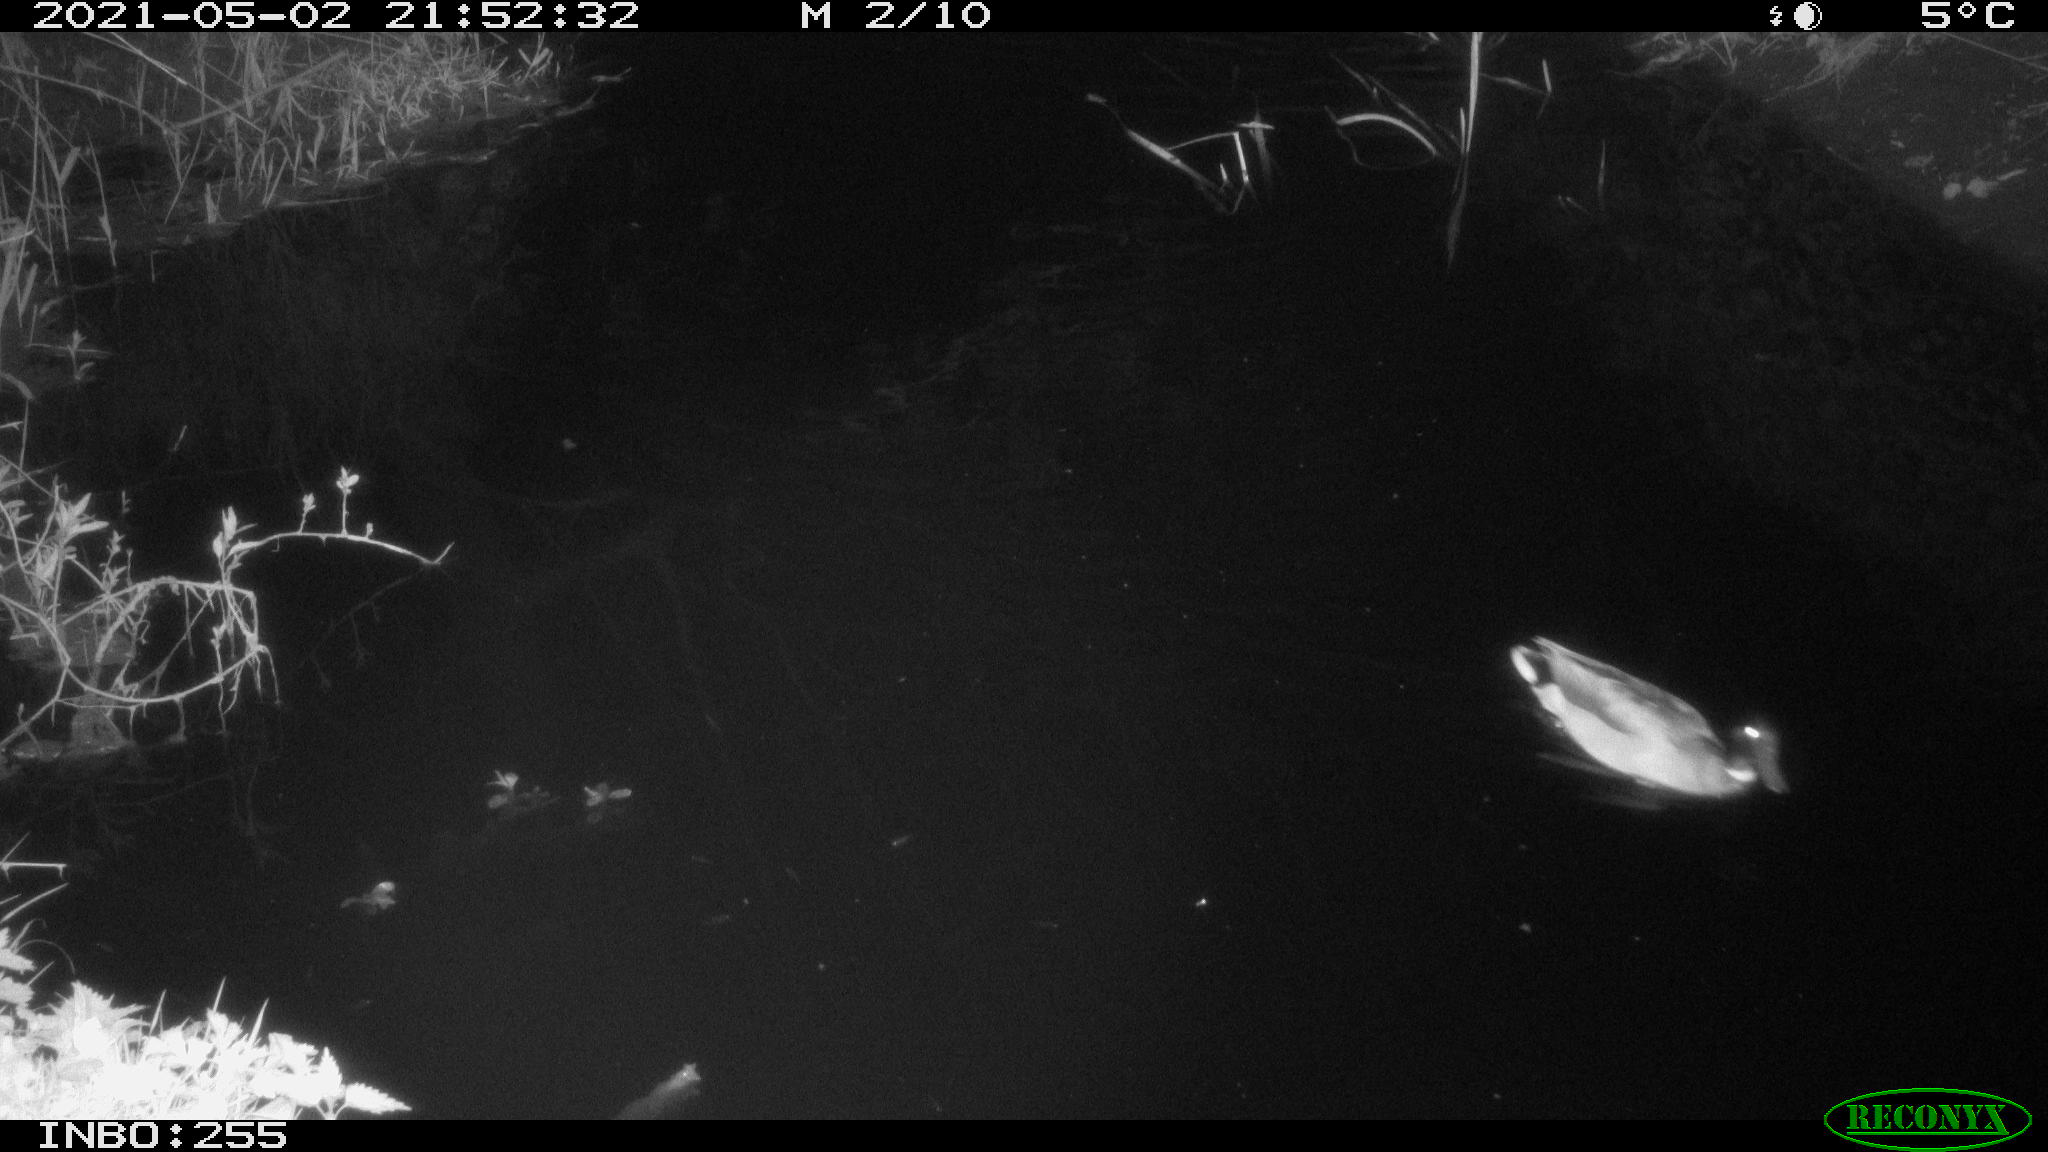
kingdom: Animalia
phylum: Chordata
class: Aves
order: Anseriformes
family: Anatidae
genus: Anas
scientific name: Anas platyrhynchos
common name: Mallard
